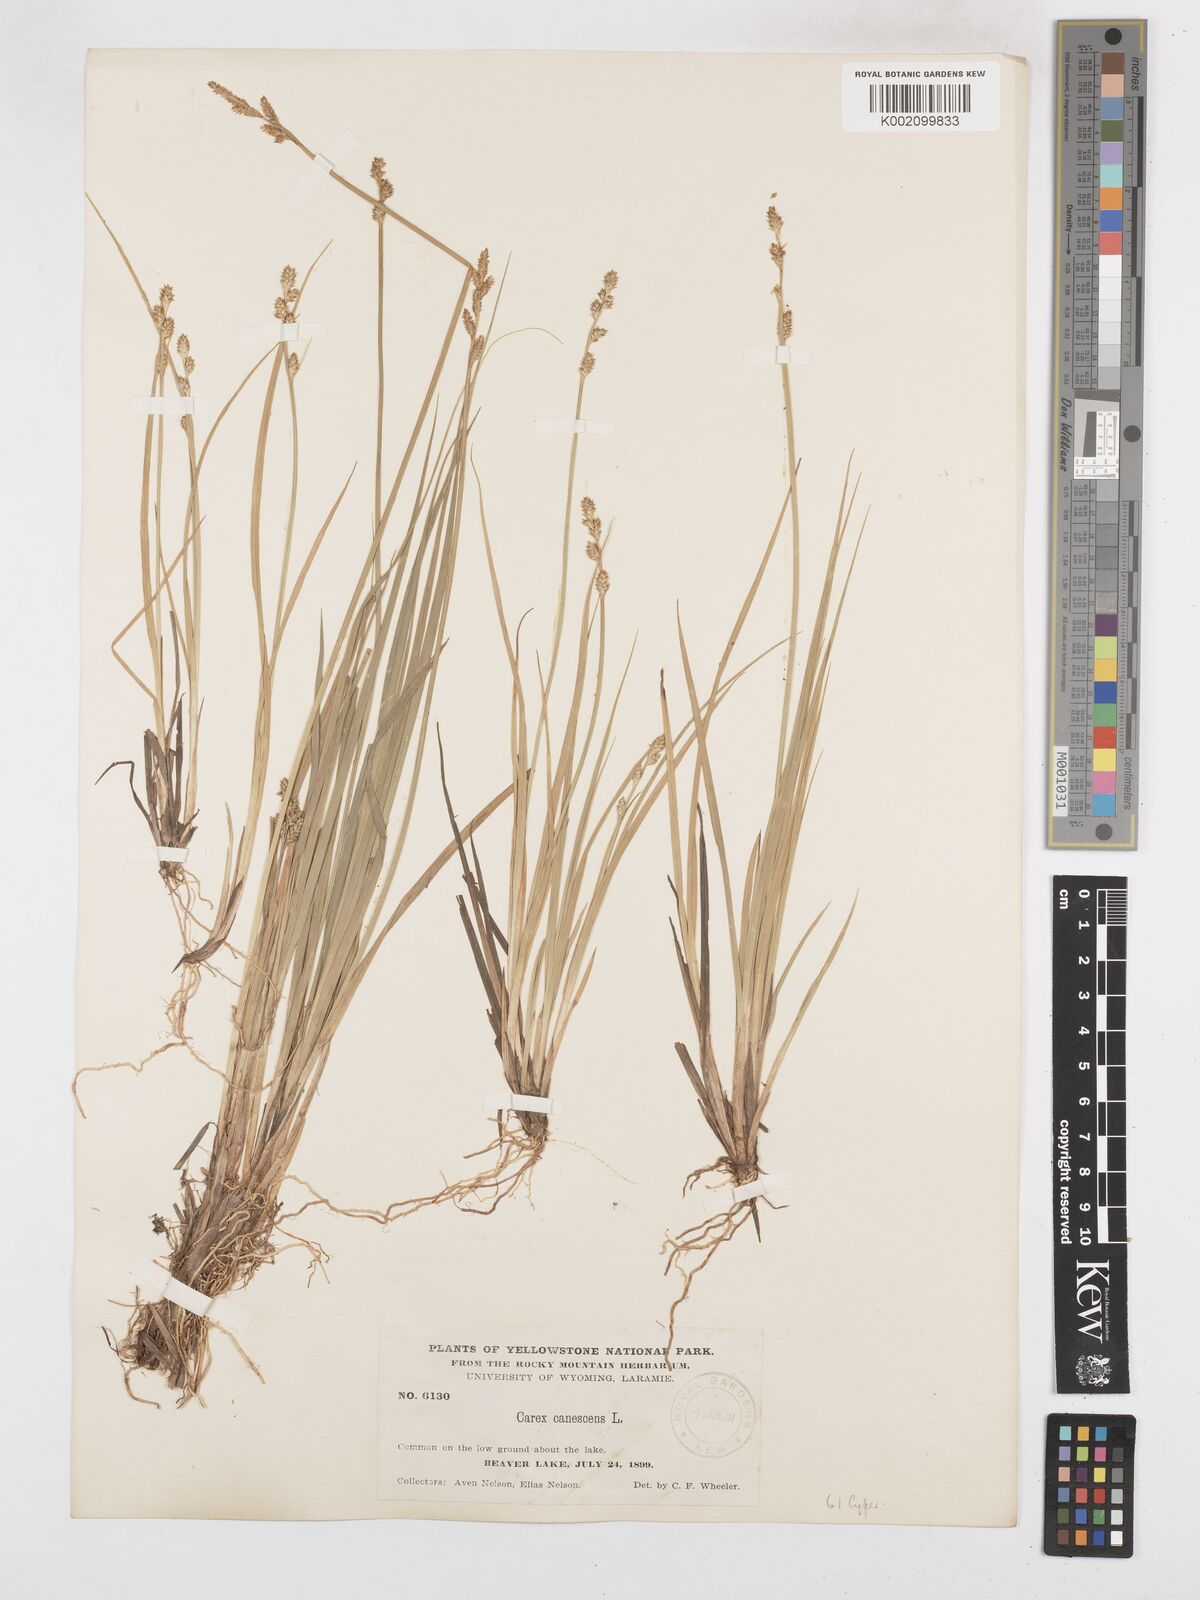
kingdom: Plantae
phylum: Tracheophyta
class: Liliopsida
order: Poales
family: Cyperaceae
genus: Carex
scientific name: Carex curta
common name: White sedge
